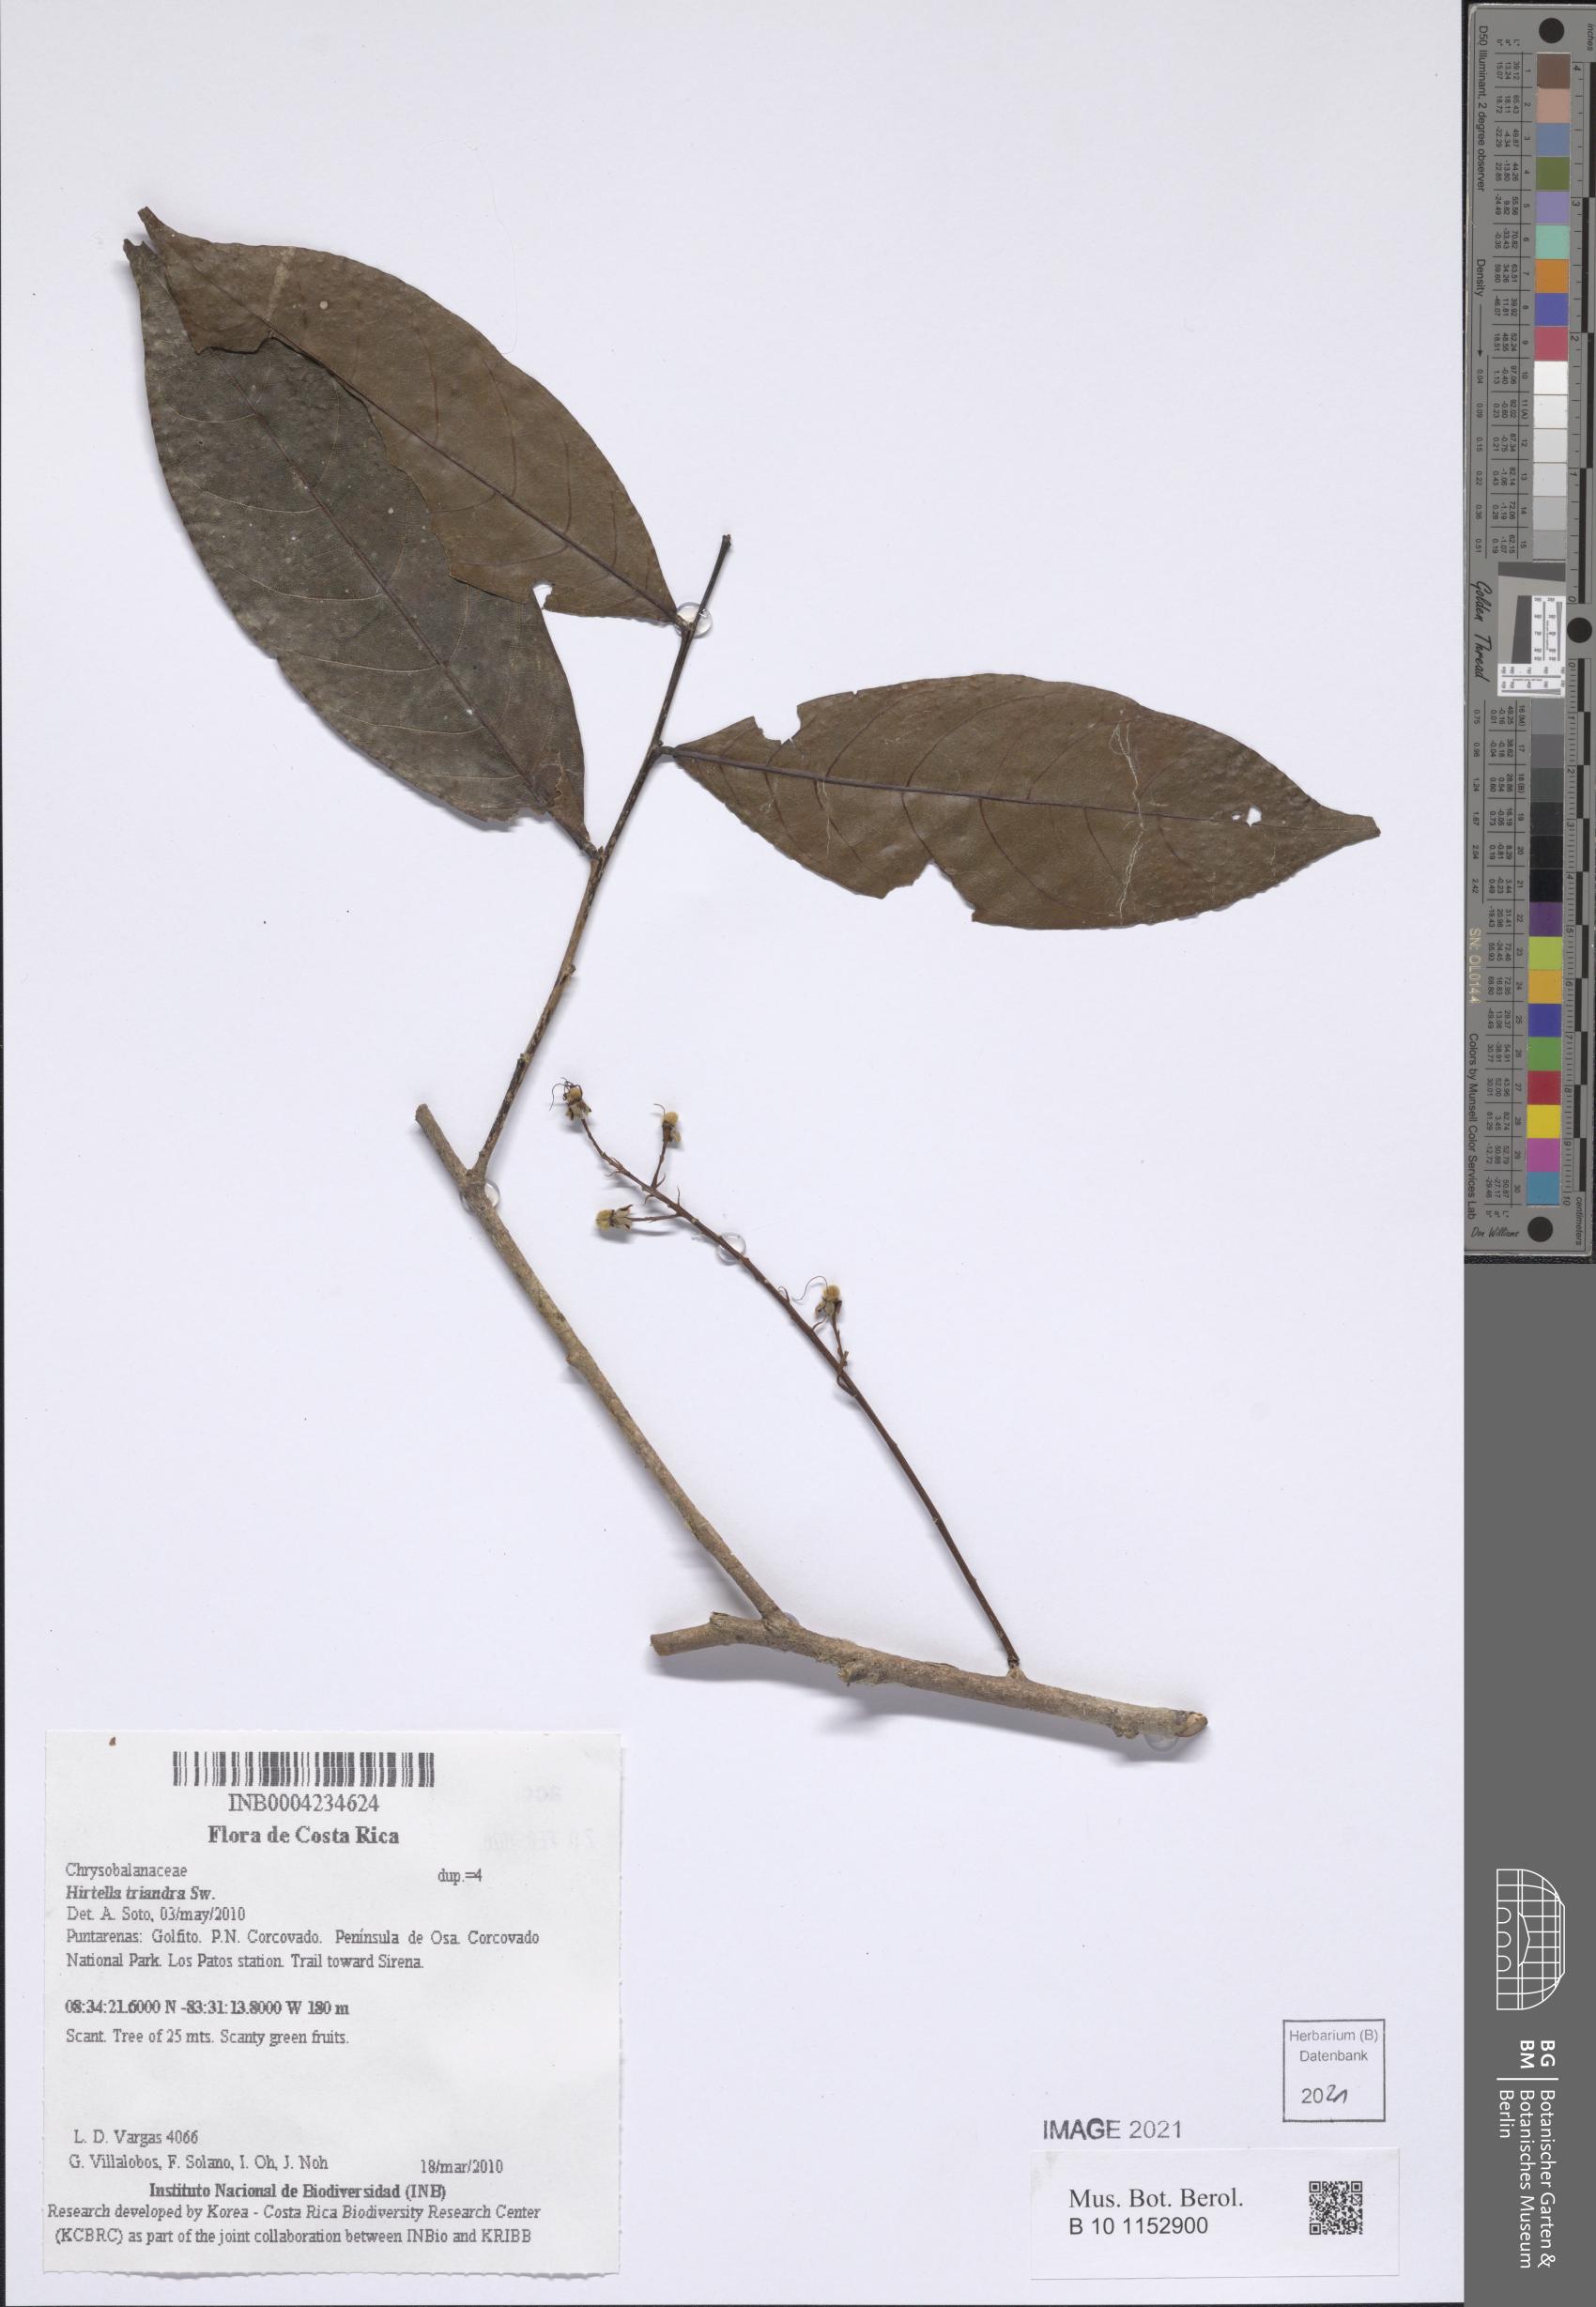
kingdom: Plantae
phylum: Tracheophyta
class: Magnoliopsida
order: Malpighiales
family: Chrysobalanaceae
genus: Hirtella
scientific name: Hirtella
